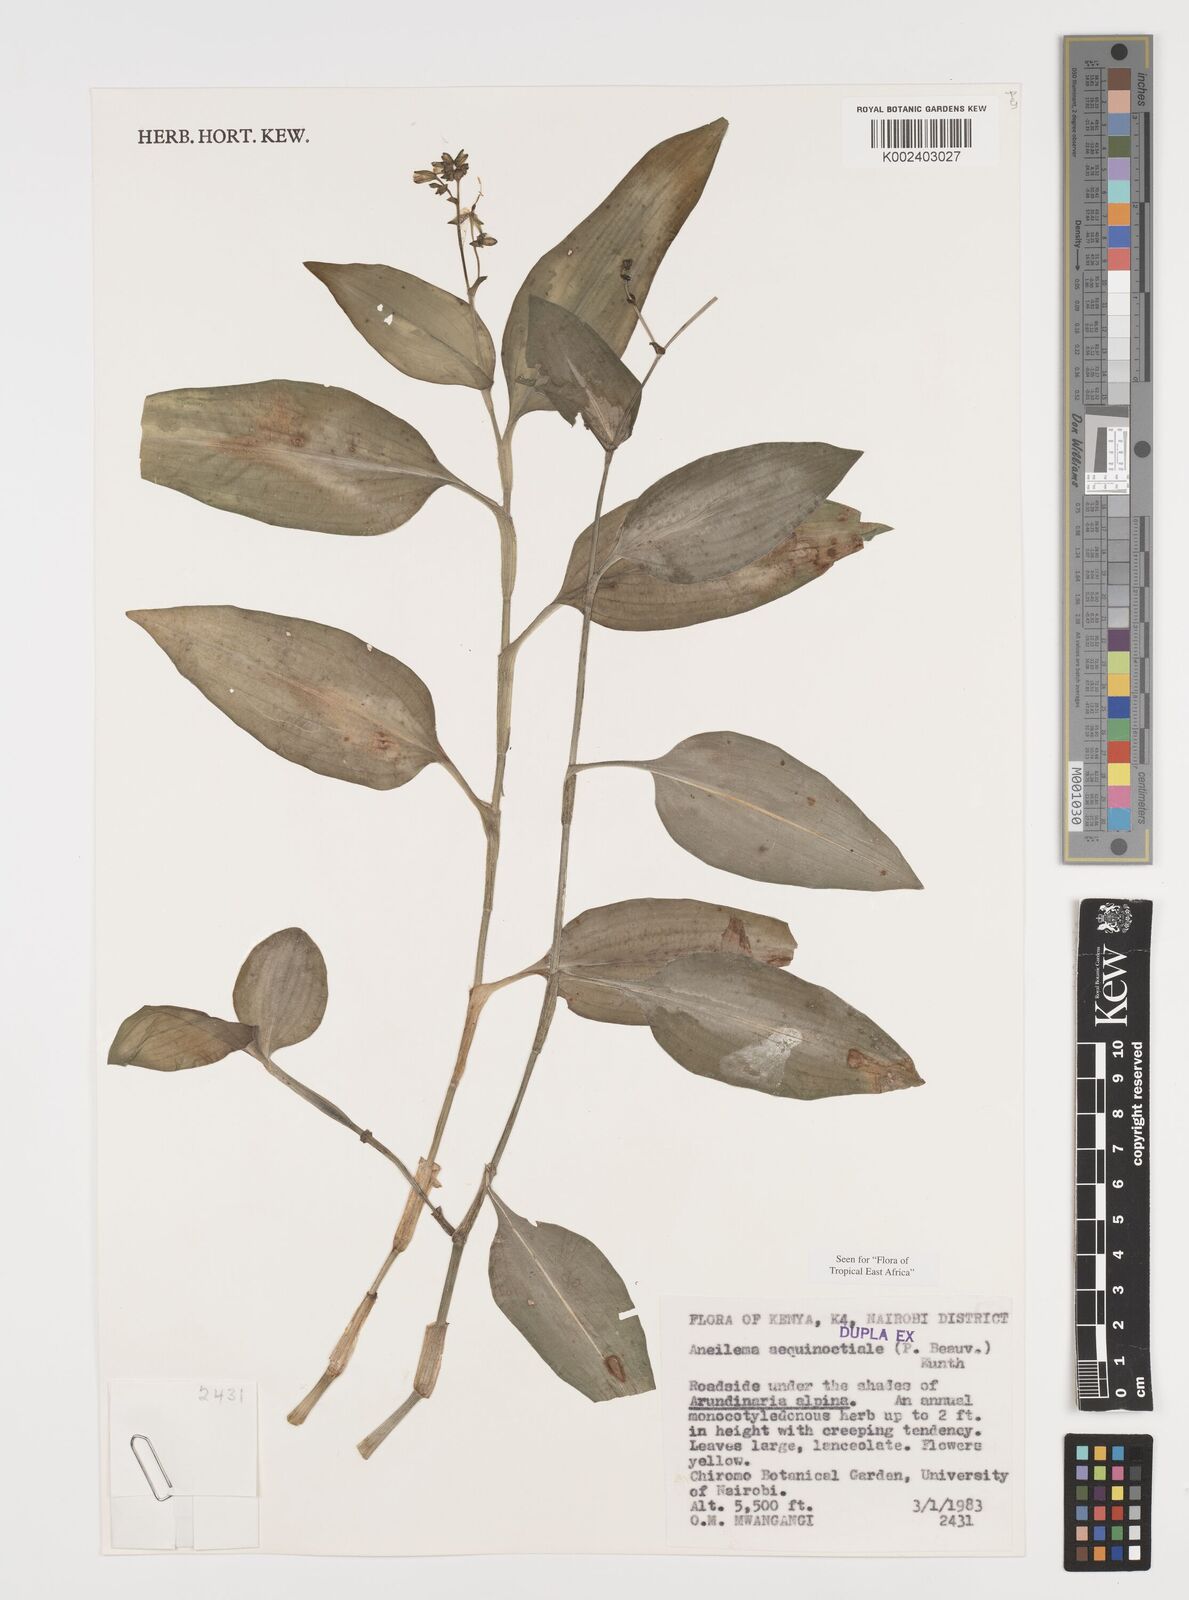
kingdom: Plantae
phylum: Tracheophyta
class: Liliopsida
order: Commelinales
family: Commelinaceae
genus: Aneilema
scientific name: Aneilema aequinoctiale
